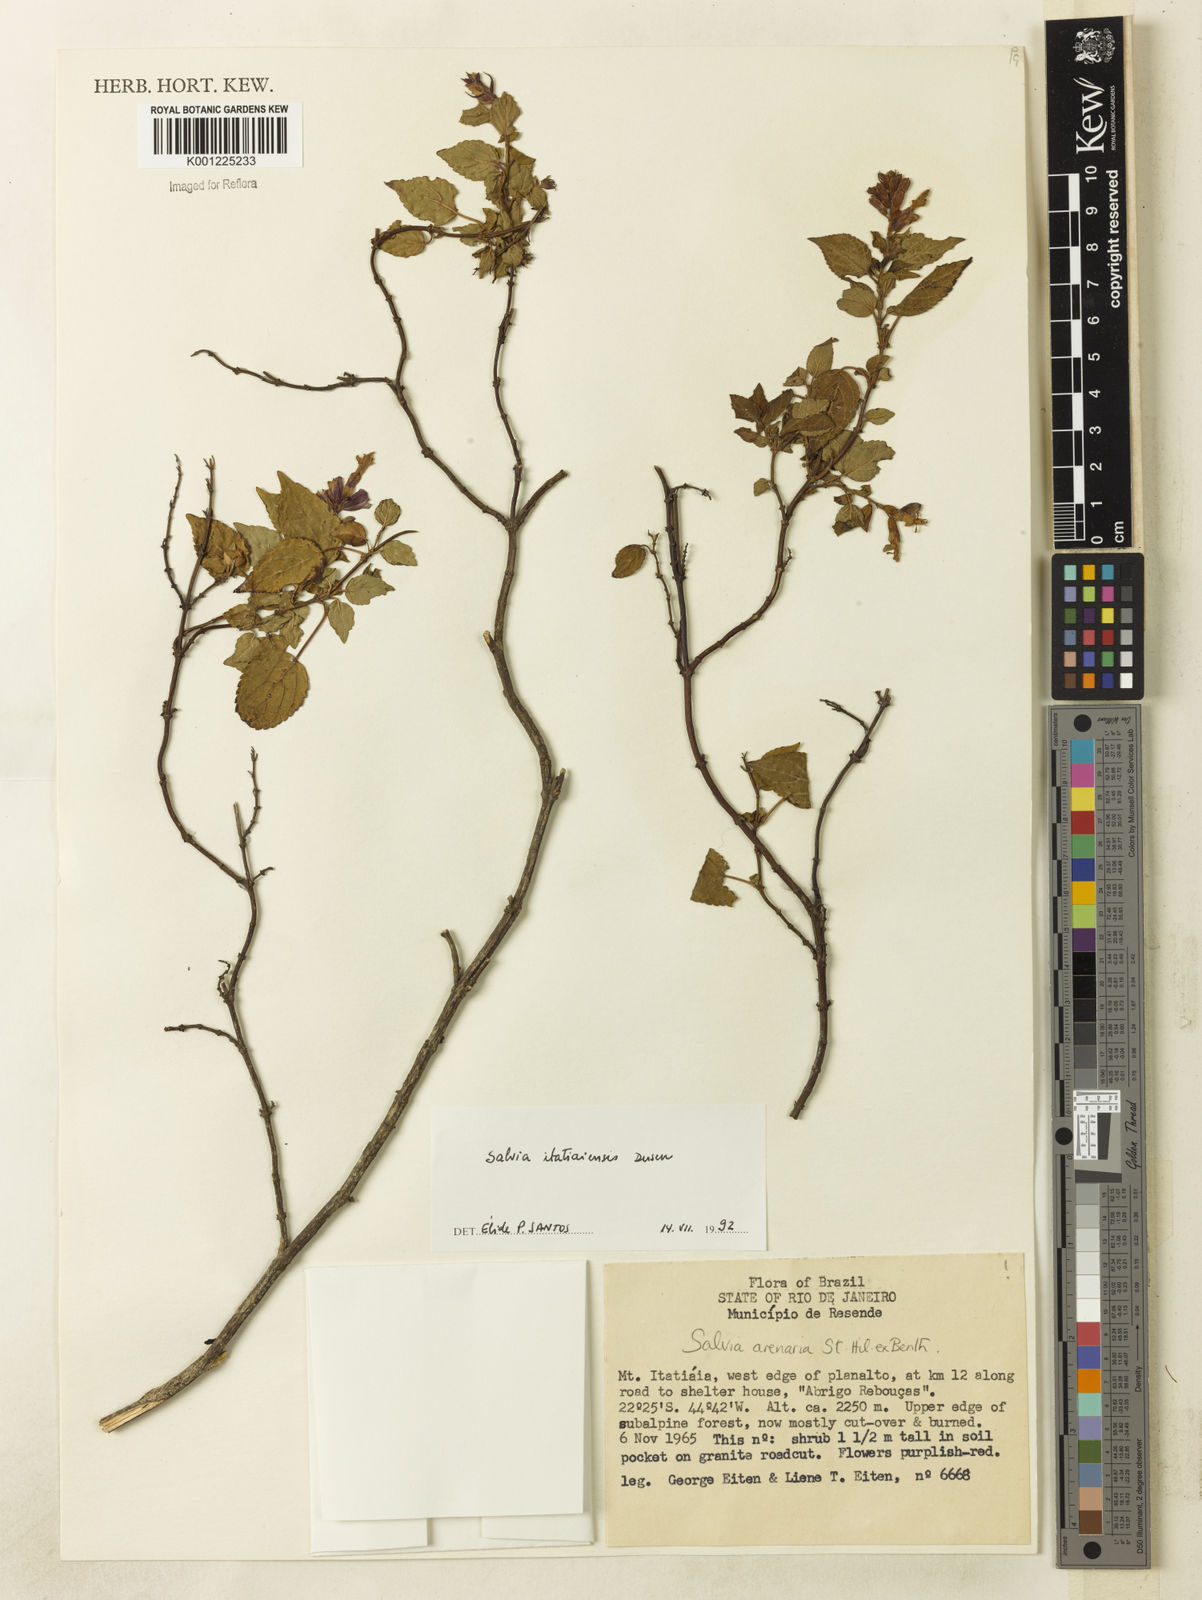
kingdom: Plantae
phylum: Tracheophyta
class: Magnoliopsida
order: Lamiales
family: Lamiaceae
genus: Salvia
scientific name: Salvia
